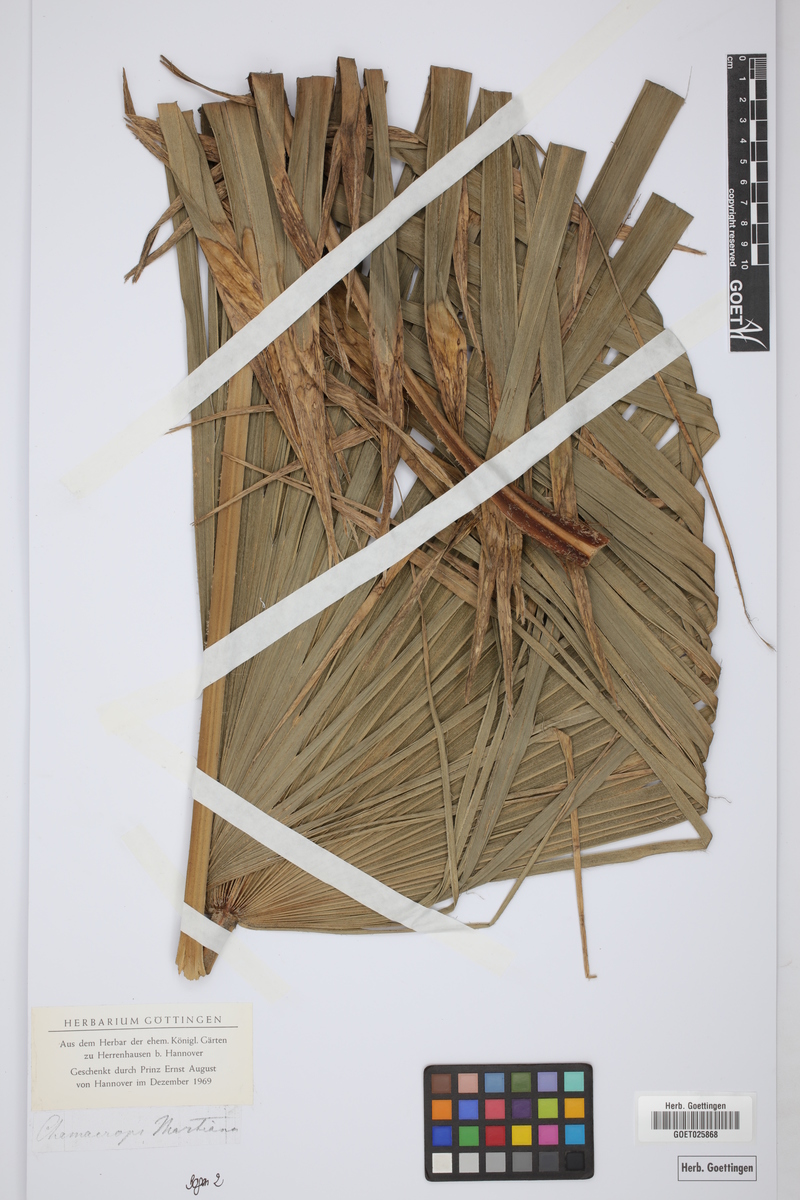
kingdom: Plantae
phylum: Tracheophyta
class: Liliopsida
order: Arecales
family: Arecaceae
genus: Trachycarpus
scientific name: Trachycarpus martianus
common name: Martius's windmill palm
